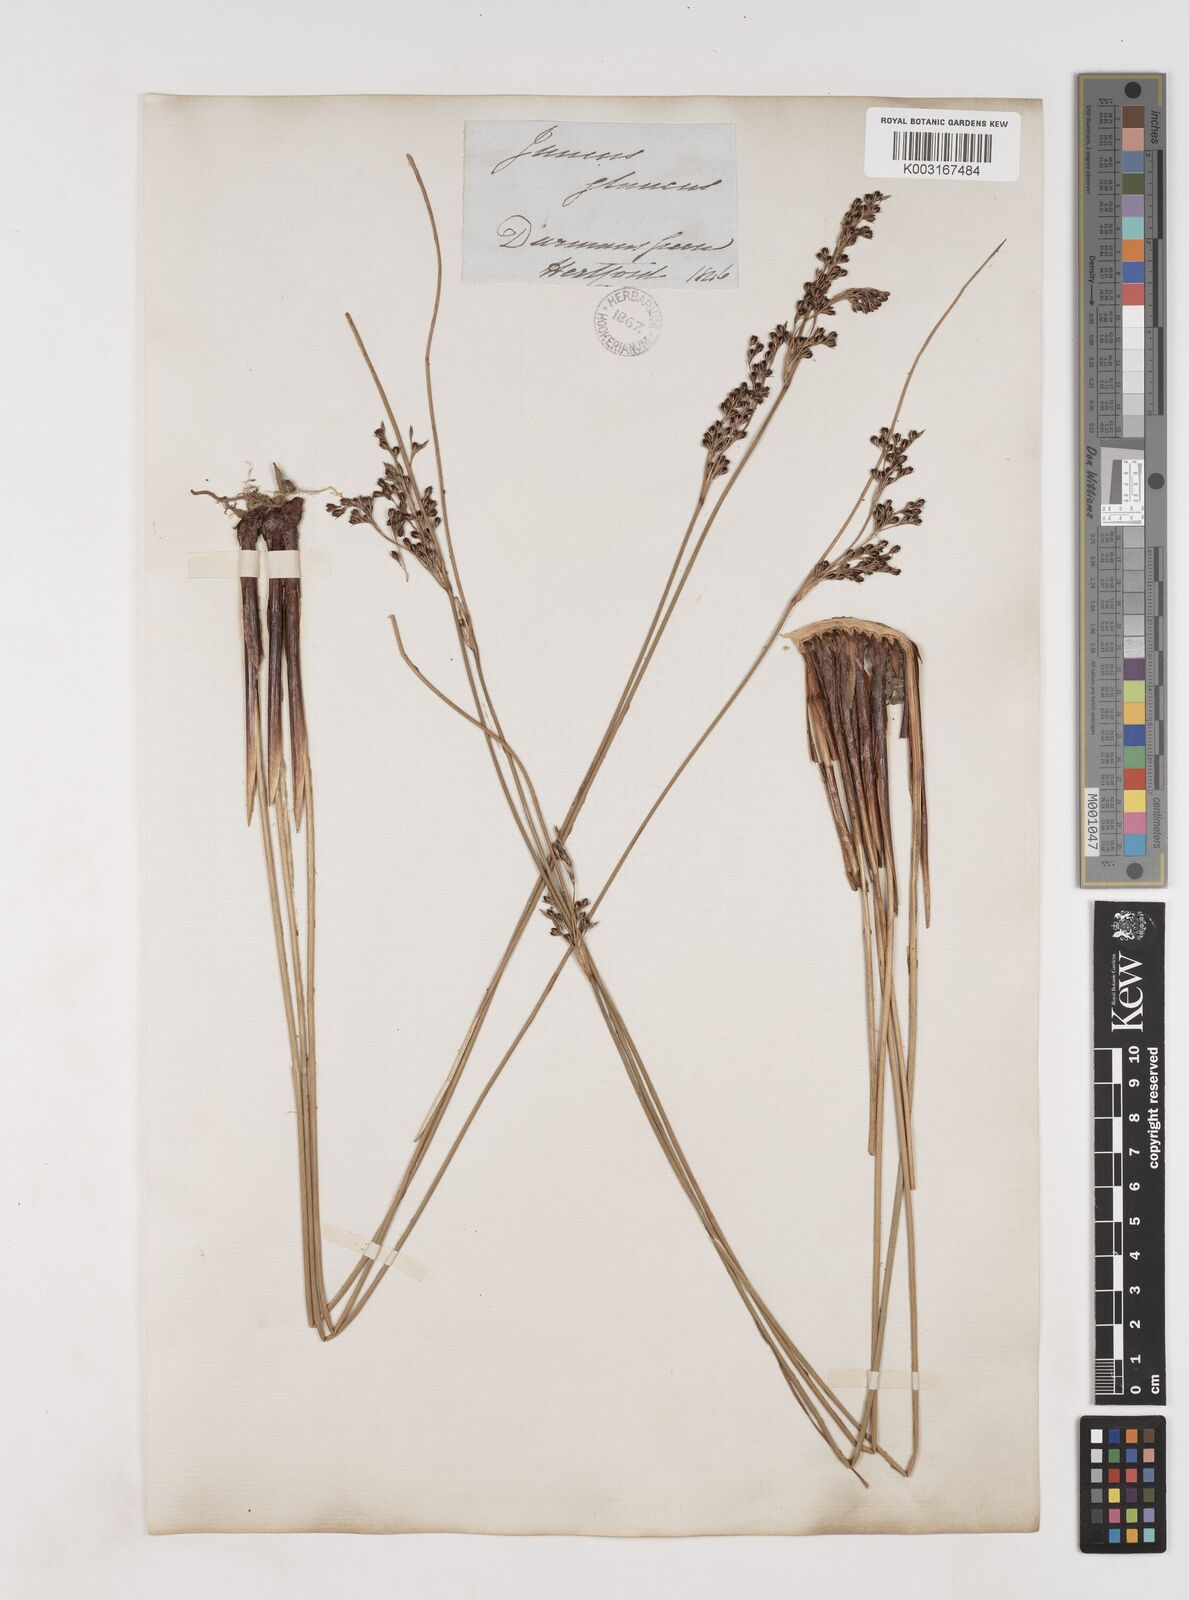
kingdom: Plantae
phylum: Tracheophyta
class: Liliopsida
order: Poales
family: Juncaceae
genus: Juncus
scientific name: Juncus inflexus
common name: Hard rush
